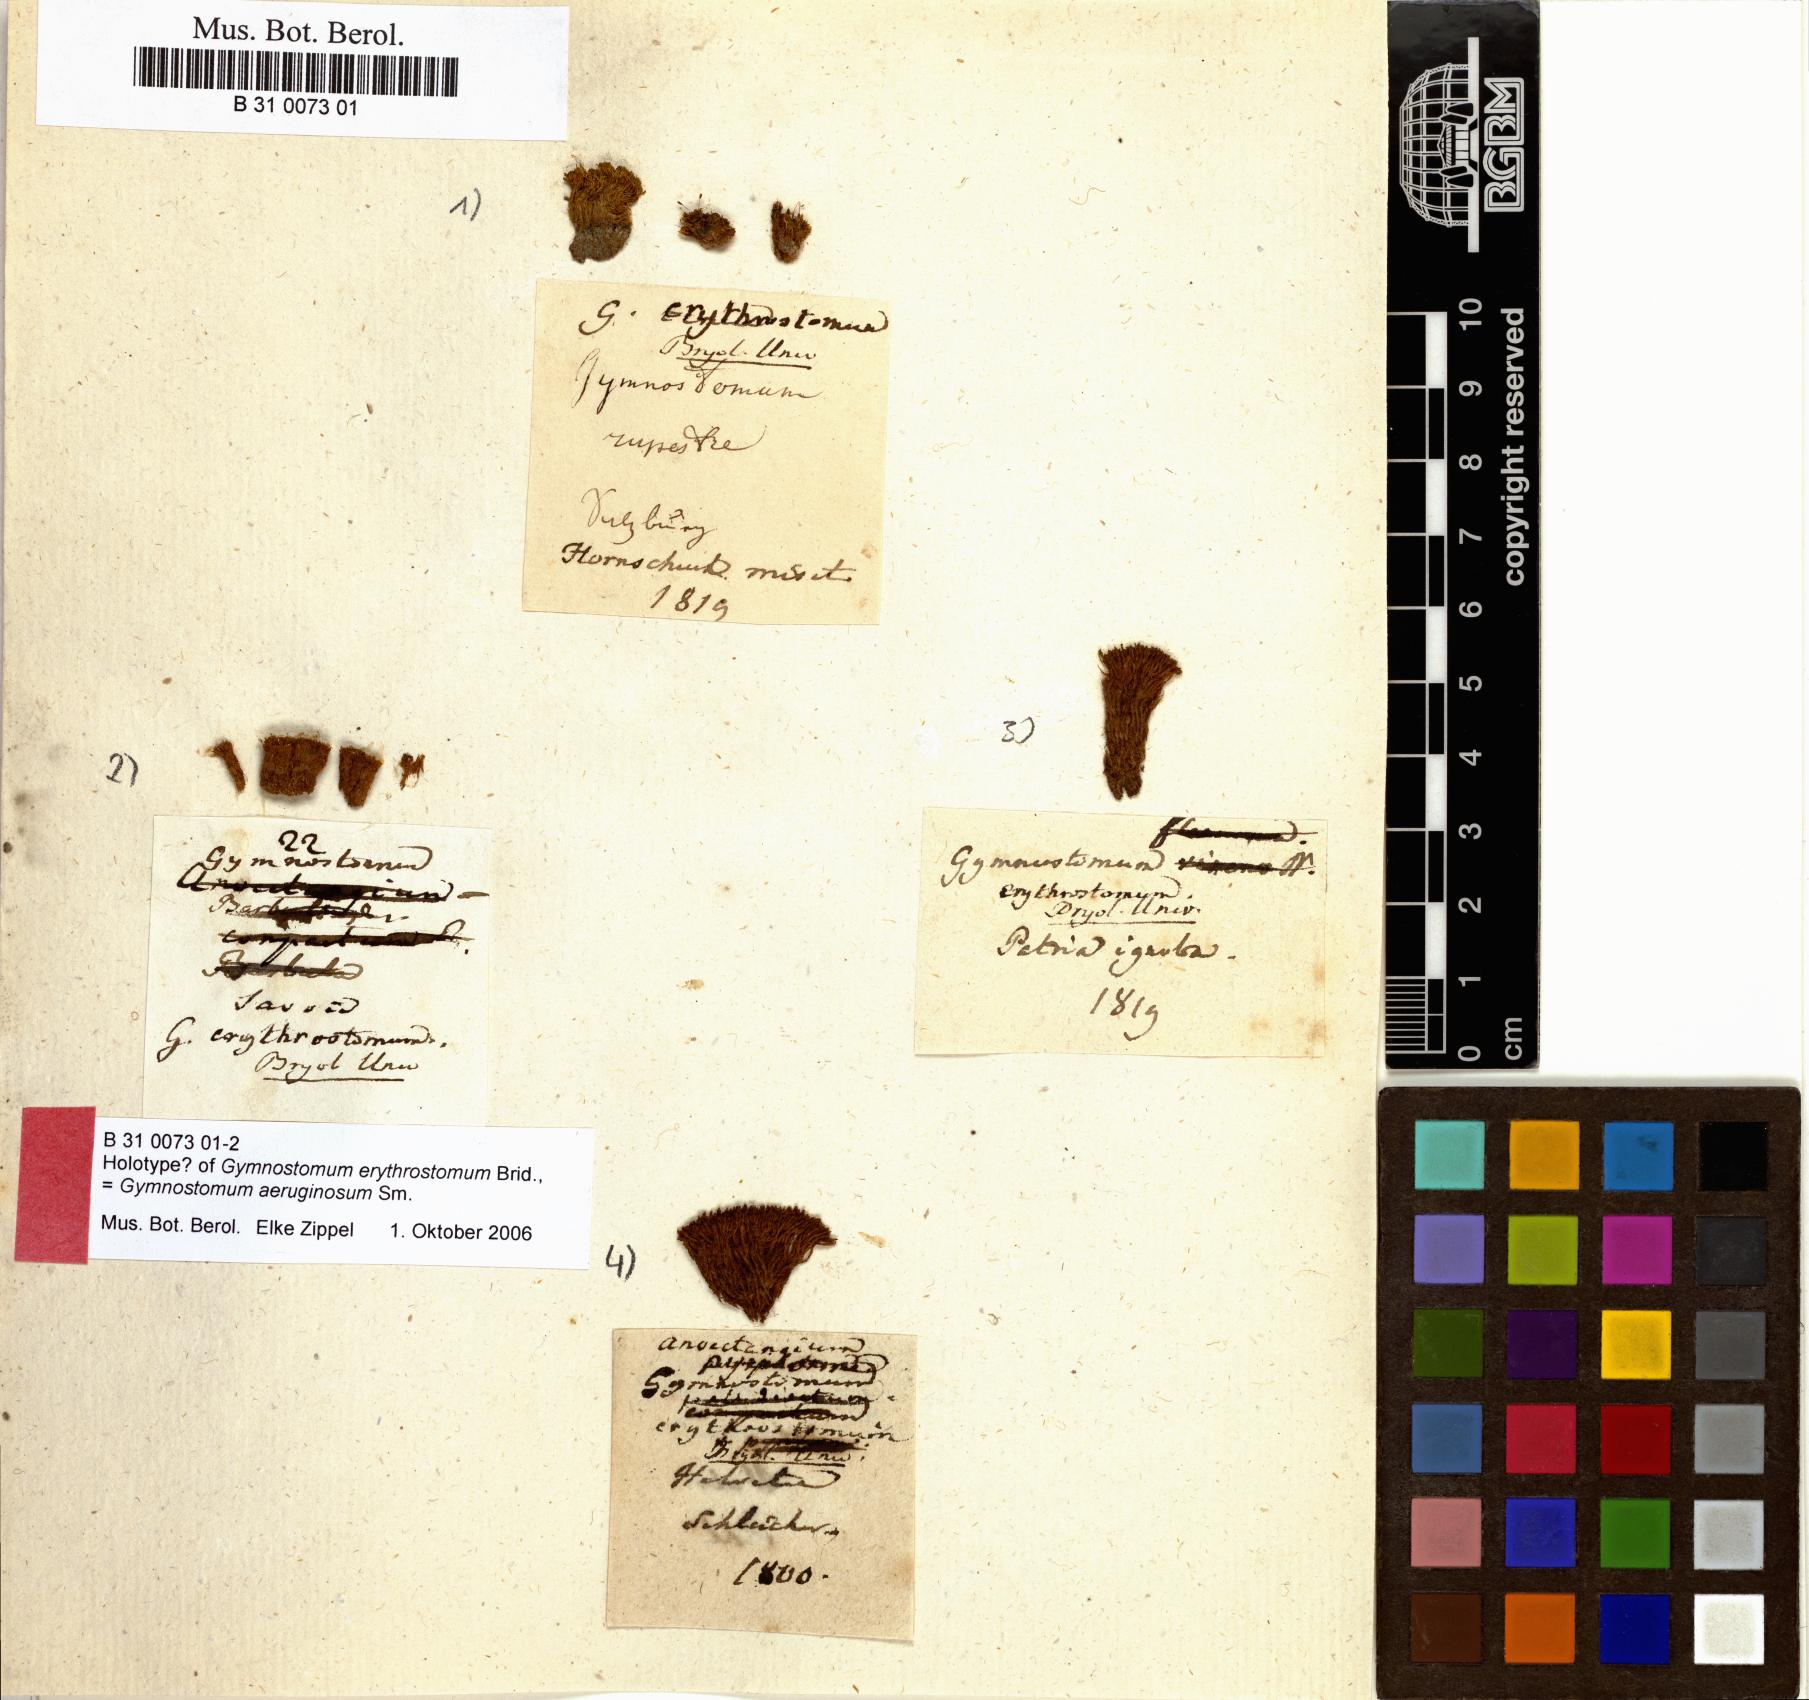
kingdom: Plantae
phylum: Bryophyta
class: Bryopsida
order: Pottiales
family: Pottiaceae
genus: Gymnostomum
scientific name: Gymnostomum aeruginosum
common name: Verdigris tufa-moss
